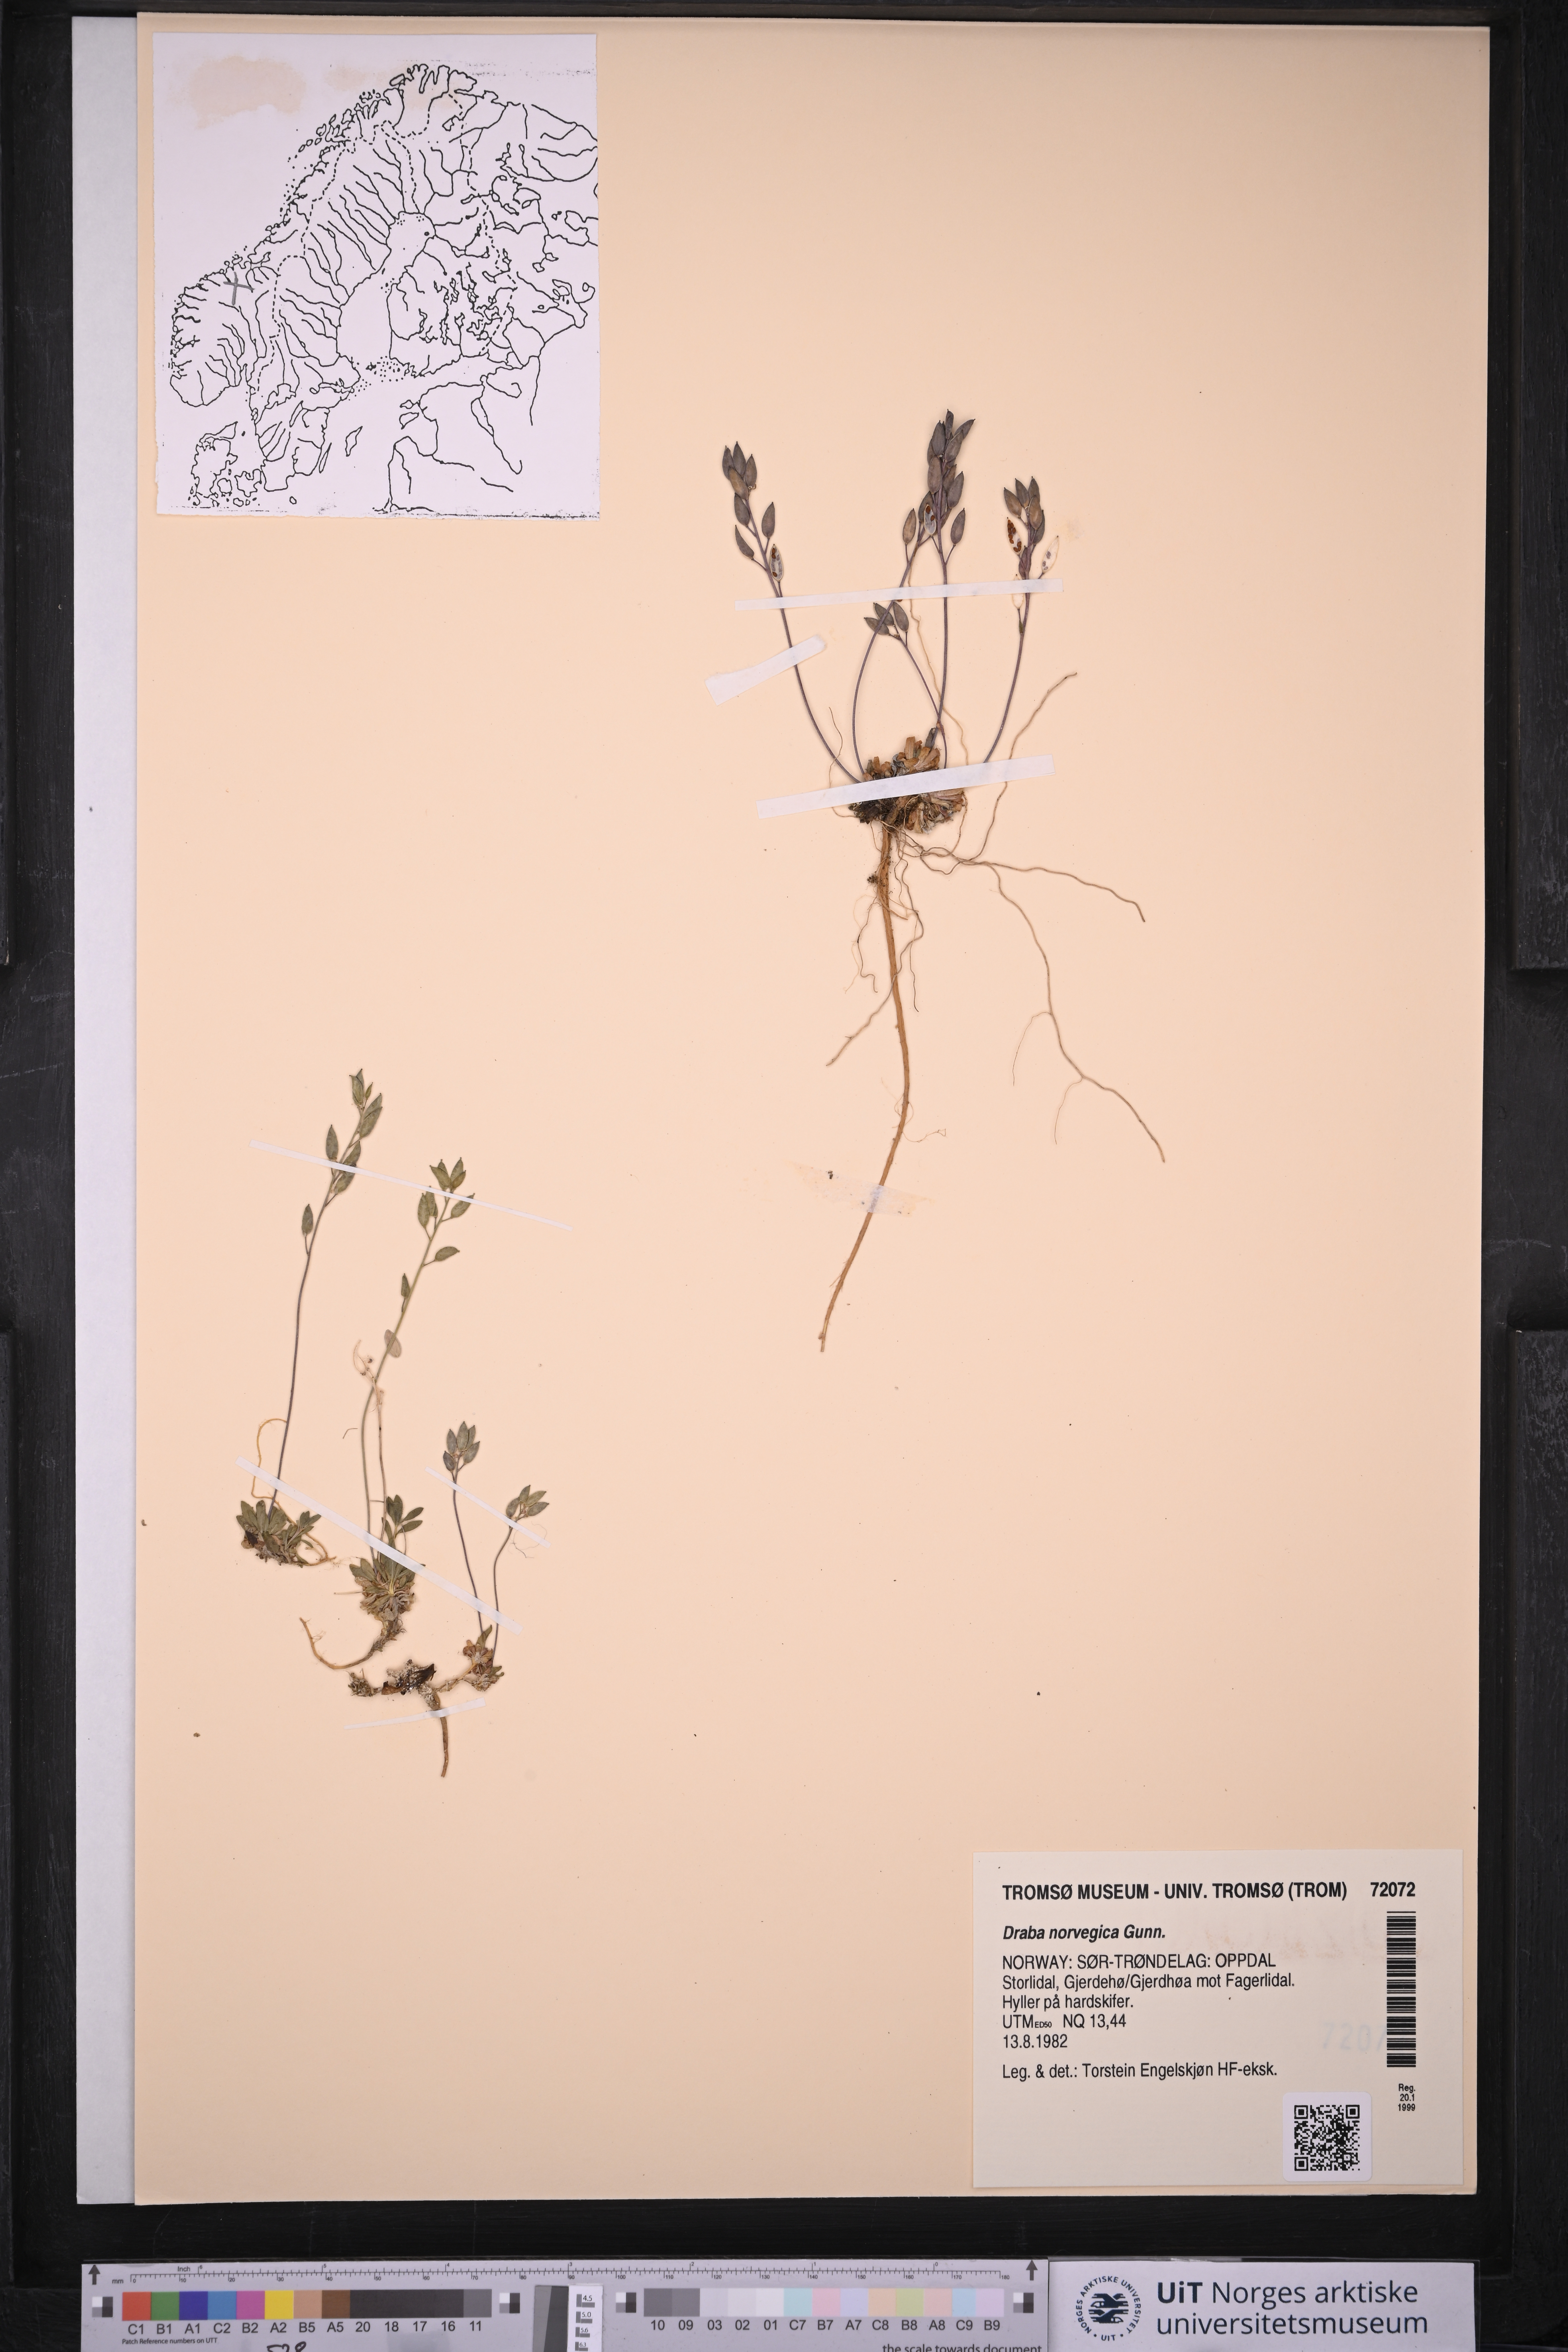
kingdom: Plantae
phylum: Tracheophyta
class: Magnoliopsida
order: Brassicales
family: Brassicaceae
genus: Draba
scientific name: Draba norvegica
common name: Rock whitlowgrass
